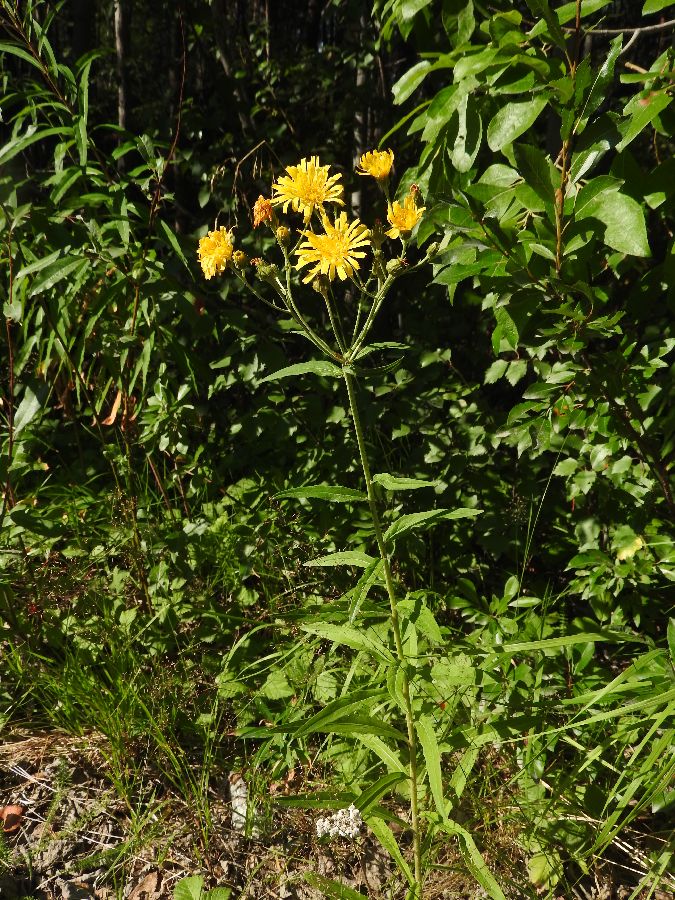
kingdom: Plantae
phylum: Tracheophyta
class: Magnoliopsida
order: Asterales
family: Asteraceae
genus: Hieracium
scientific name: Hieracium umbellatum
